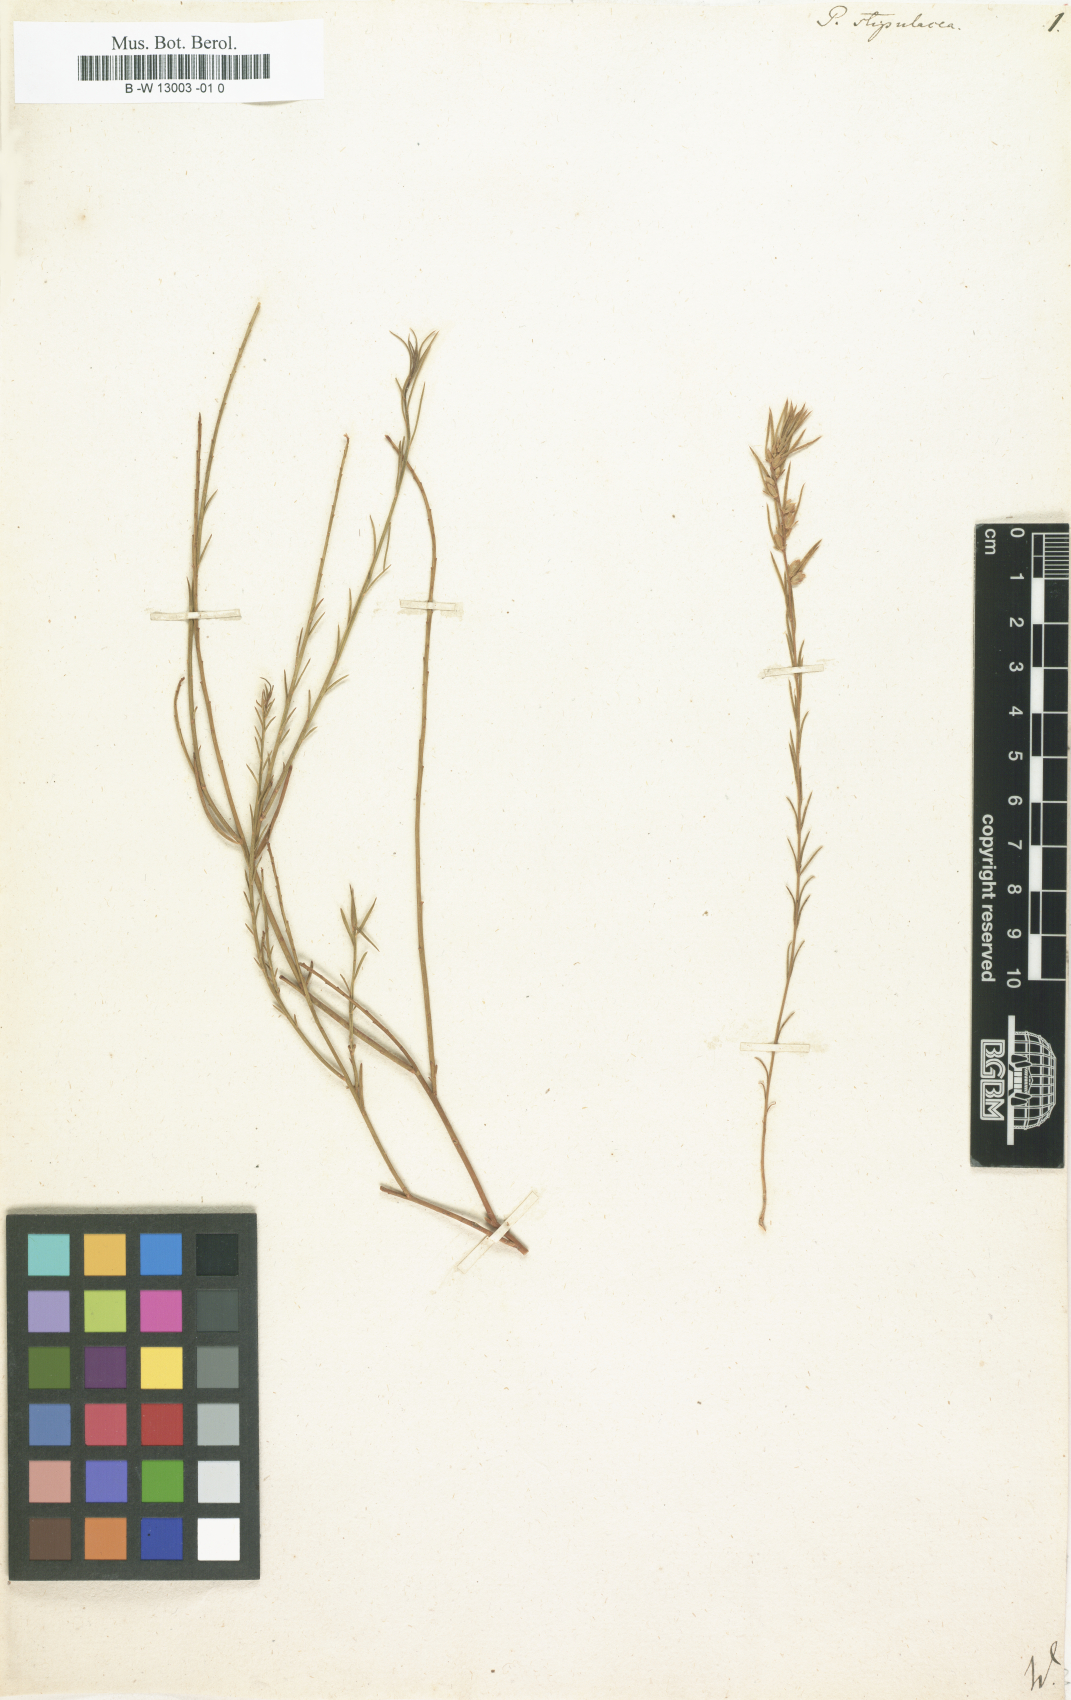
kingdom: Plantae
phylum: Tracheophyta
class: Magnoliopsida
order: Fabales
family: Polygalaceae
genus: Muraltia
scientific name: Muraltia
